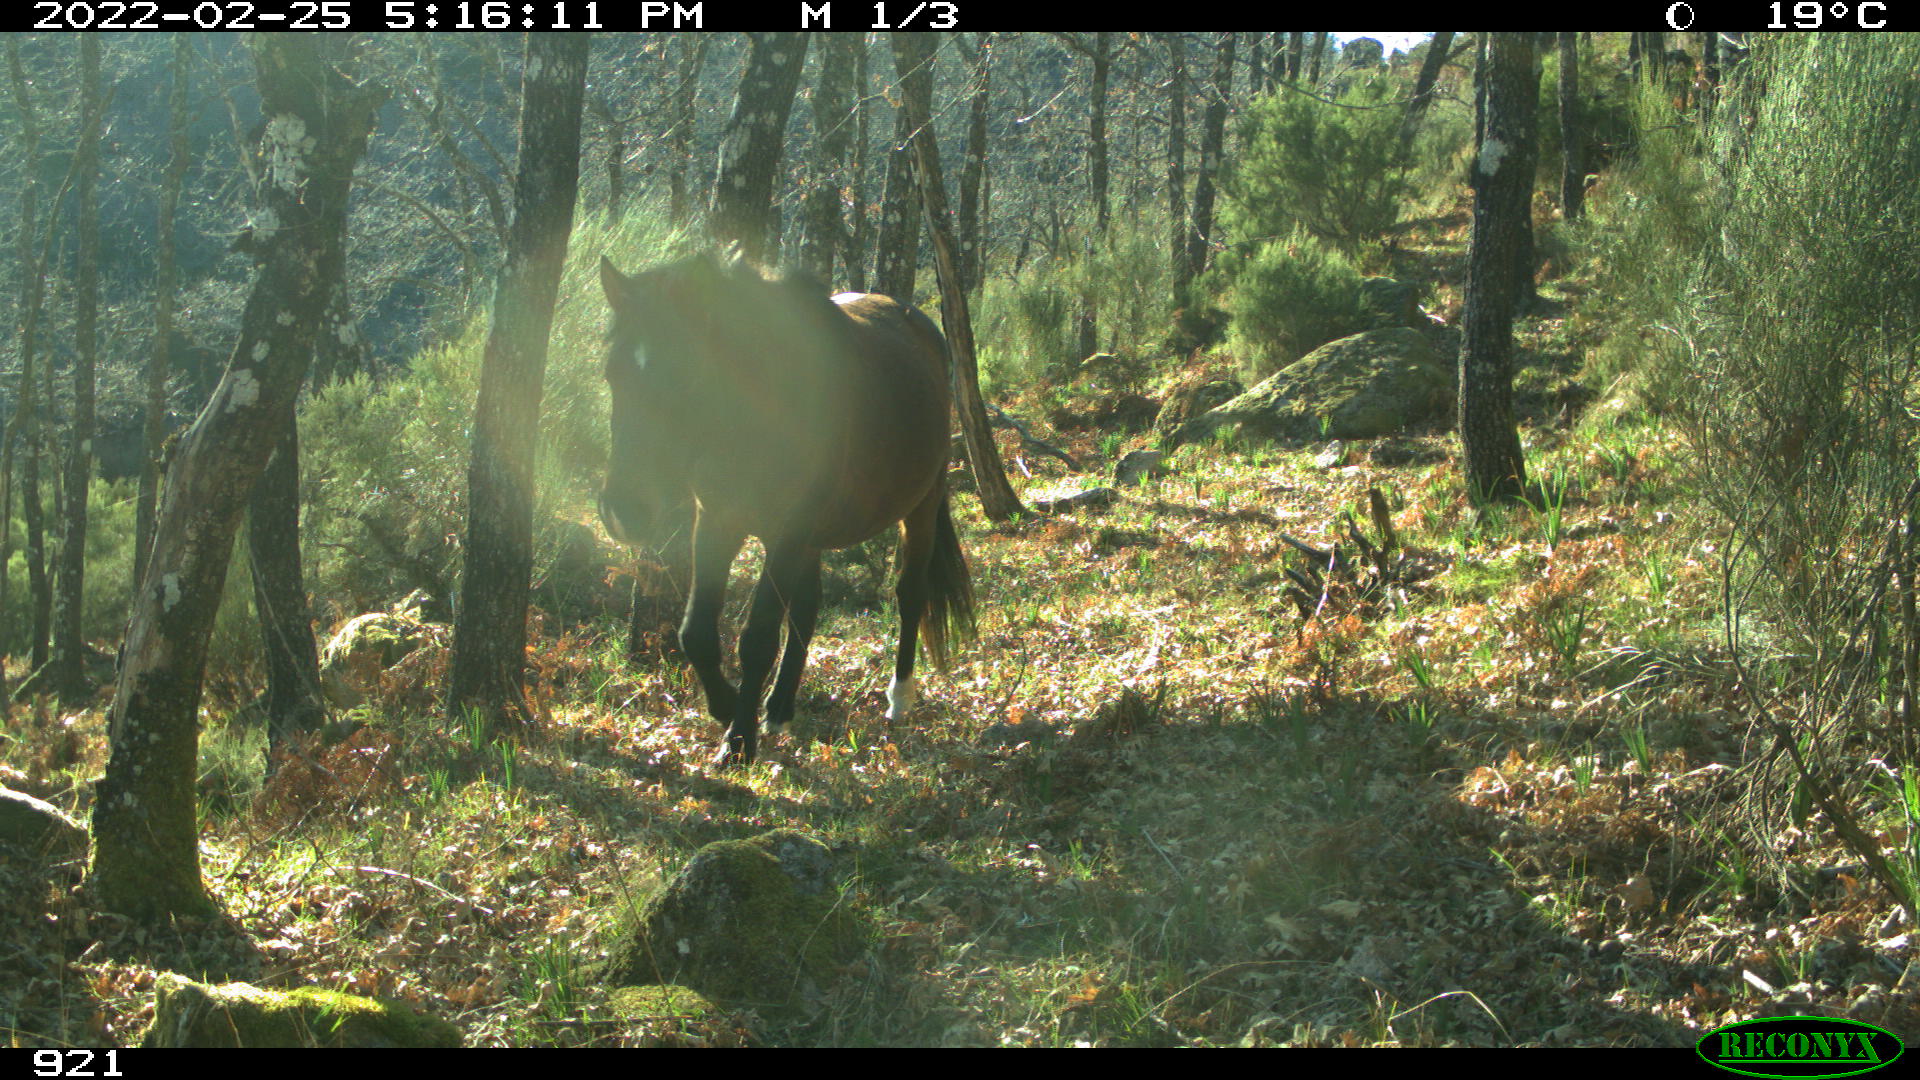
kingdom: Animalia
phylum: Chordata
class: Mammalia
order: Perissodactyla
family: Equidae
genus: Equus
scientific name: Equus caballus
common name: Horse
